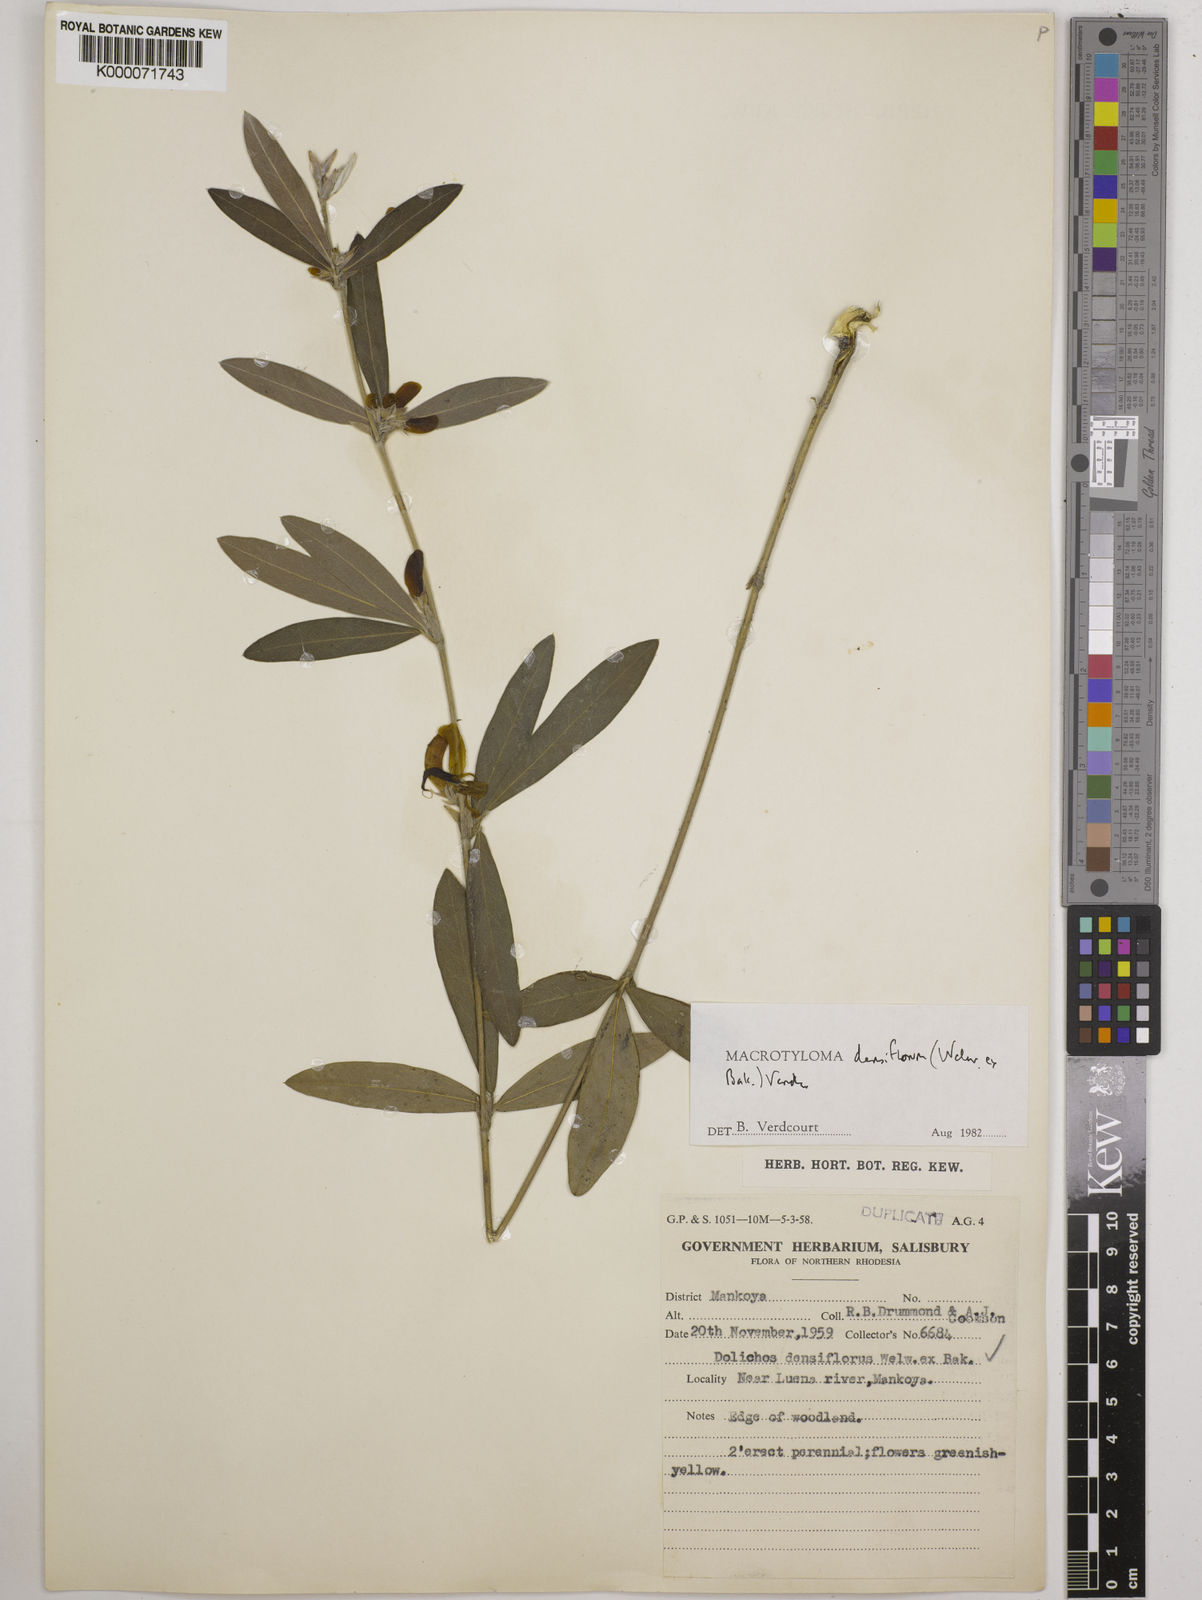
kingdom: Plantae
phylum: Tracheophyta
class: Magnoliopsida
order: Fabales
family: Fabaceae
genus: Macrotyloma
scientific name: Macrotyloma densiflorum
